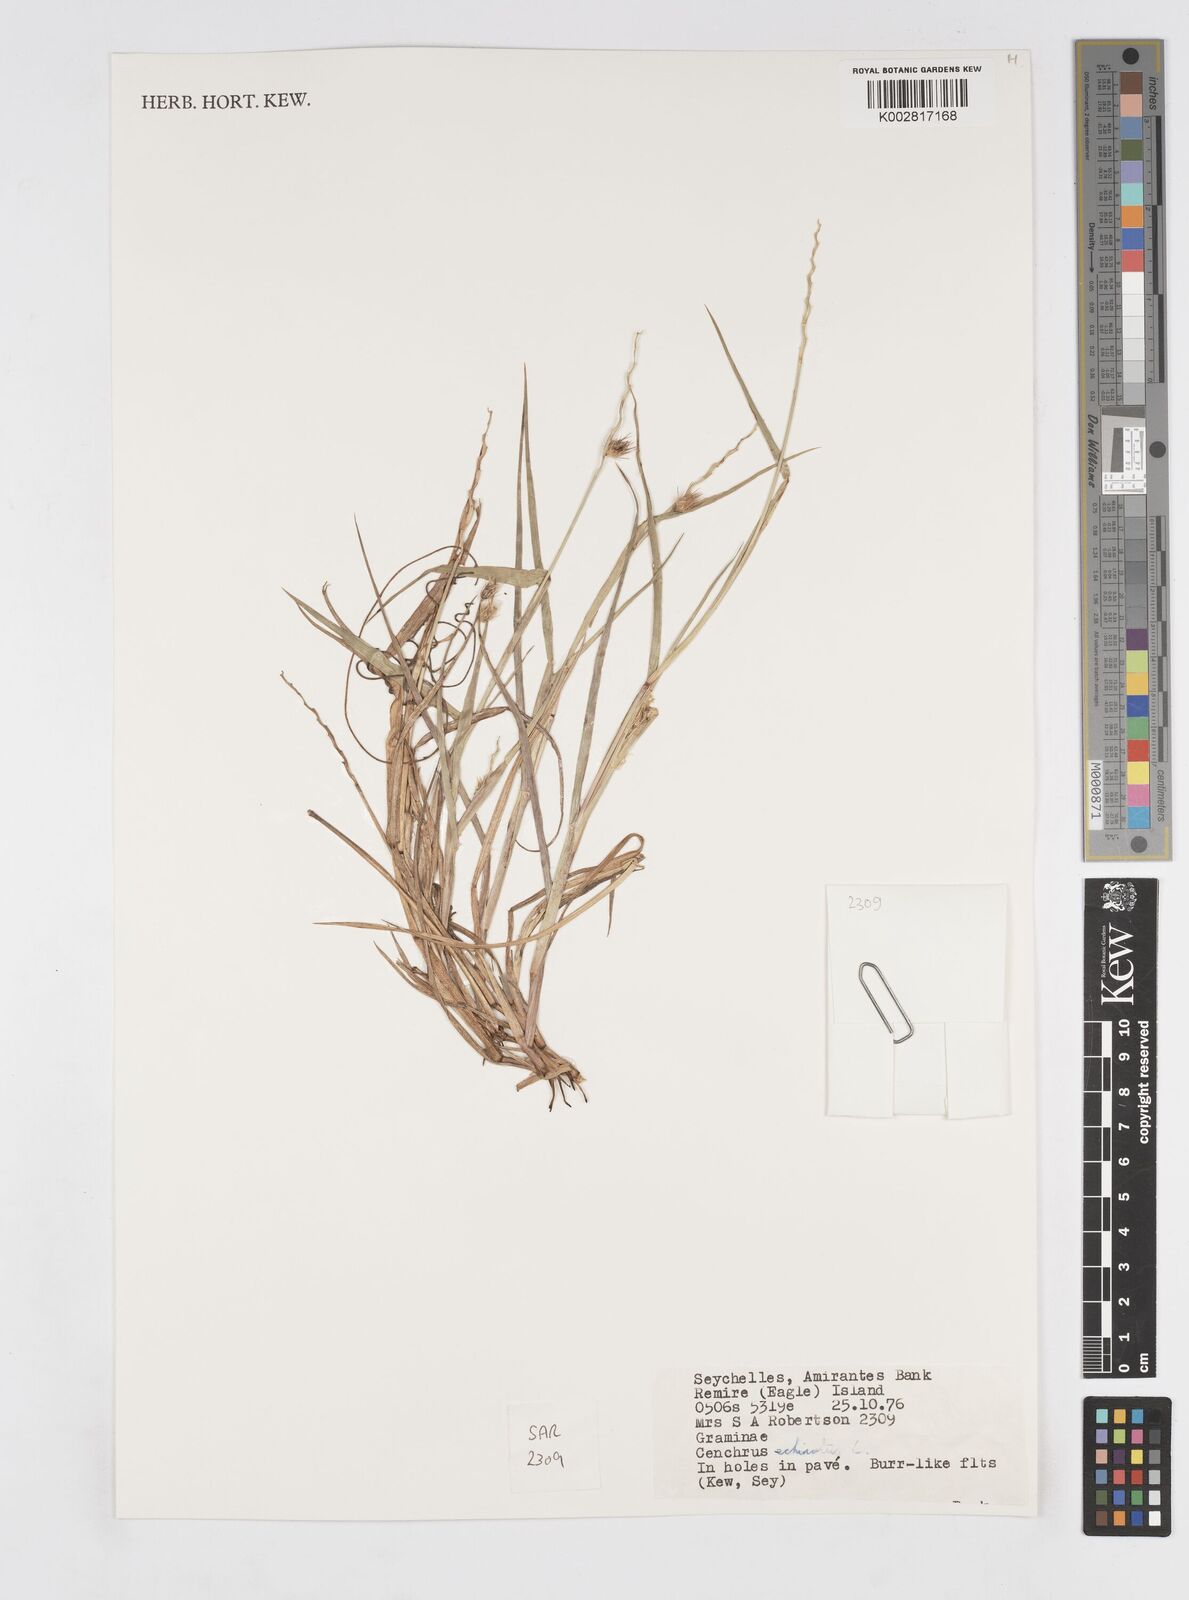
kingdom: Plantae
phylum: Tracheophyta
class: Liliopsida
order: Poales
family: Poaceae
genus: Cenchrus
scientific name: Cenchrus echinatus
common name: Southern sandbur
